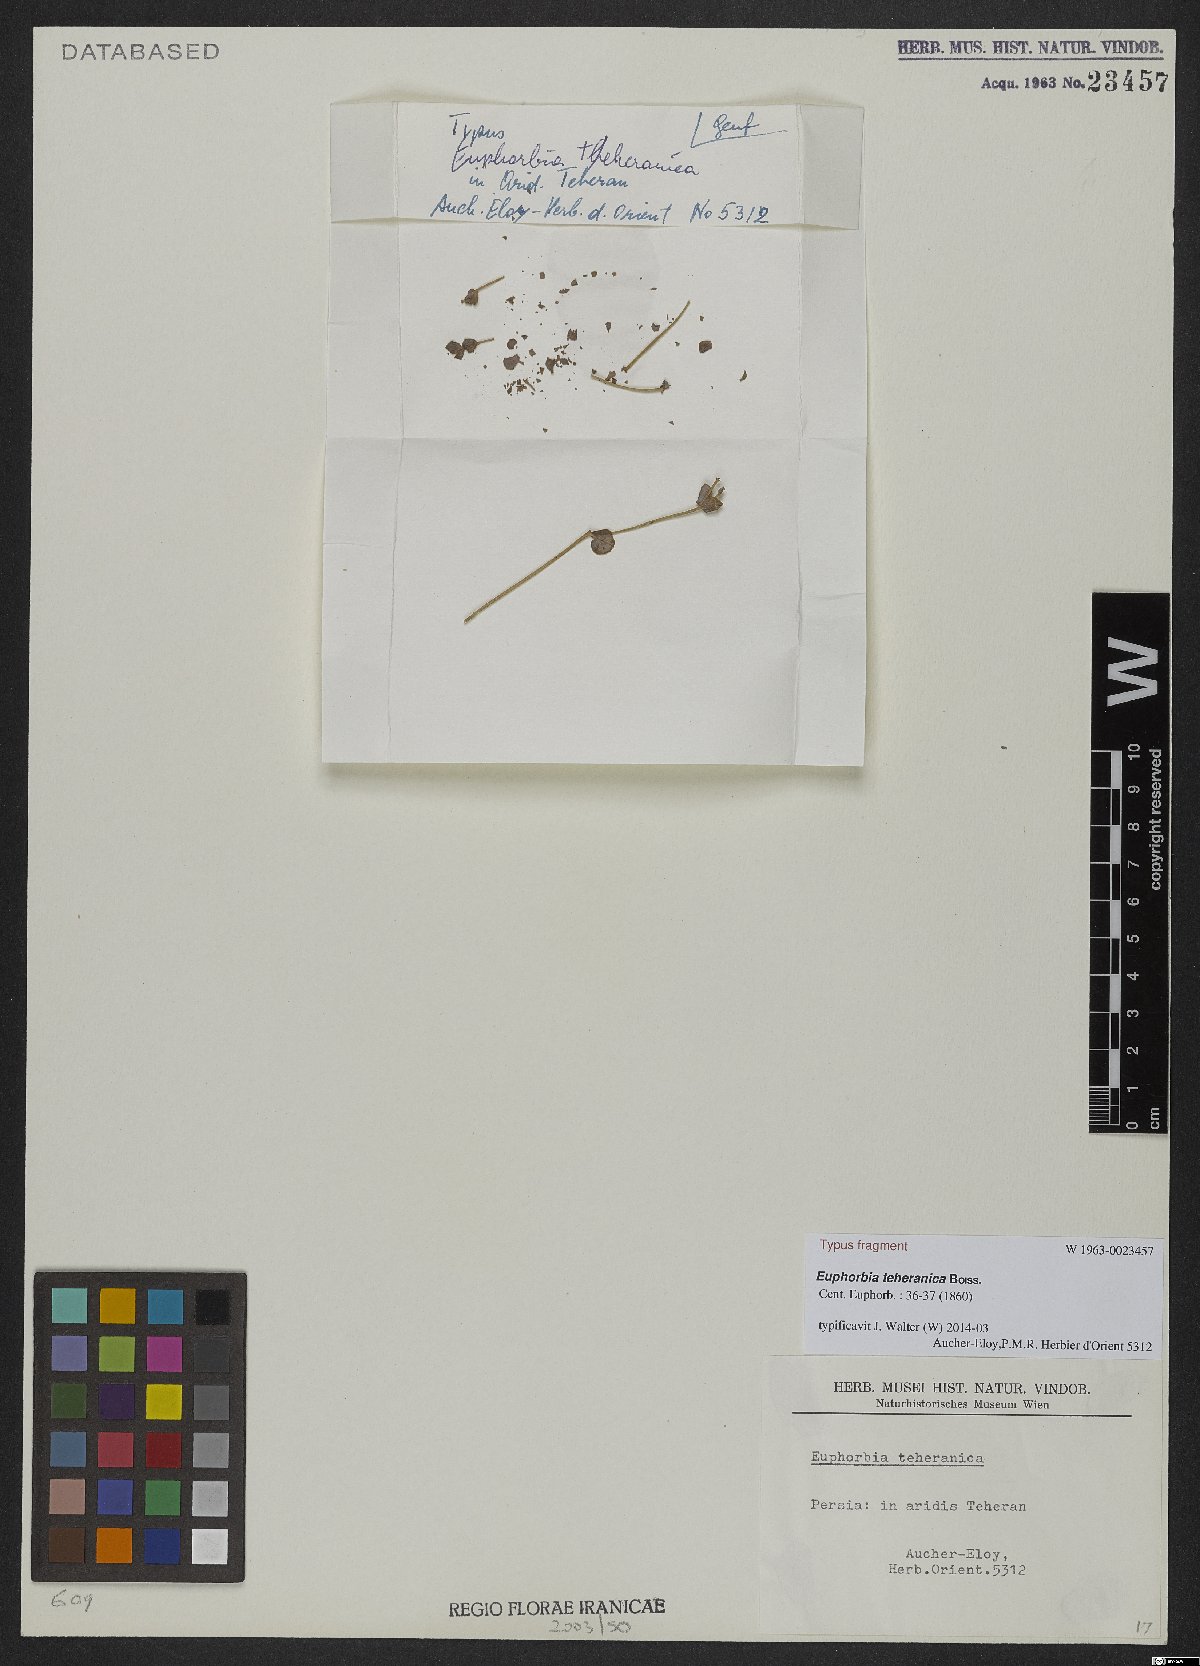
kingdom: Plantae
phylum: Tracheophyta
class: Magnoliopsida
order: Malpighiales
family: Euphorbiaceae
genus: Euphorbia
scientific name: Euphorbia teheranica
